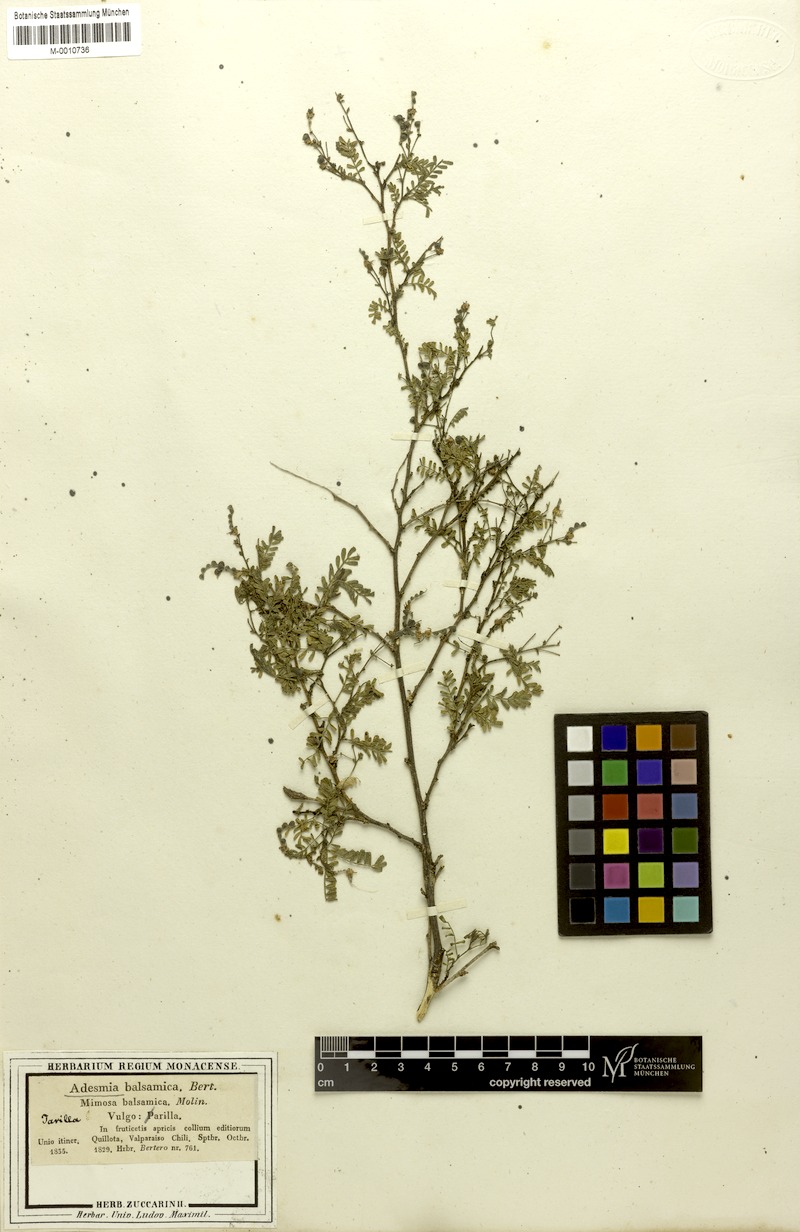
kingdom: Plantae
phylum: Tracheophyta
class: Magnoliopsida
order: Fabales
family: Fabaceae
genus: Adesmia
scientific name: Adesmia balsamica
